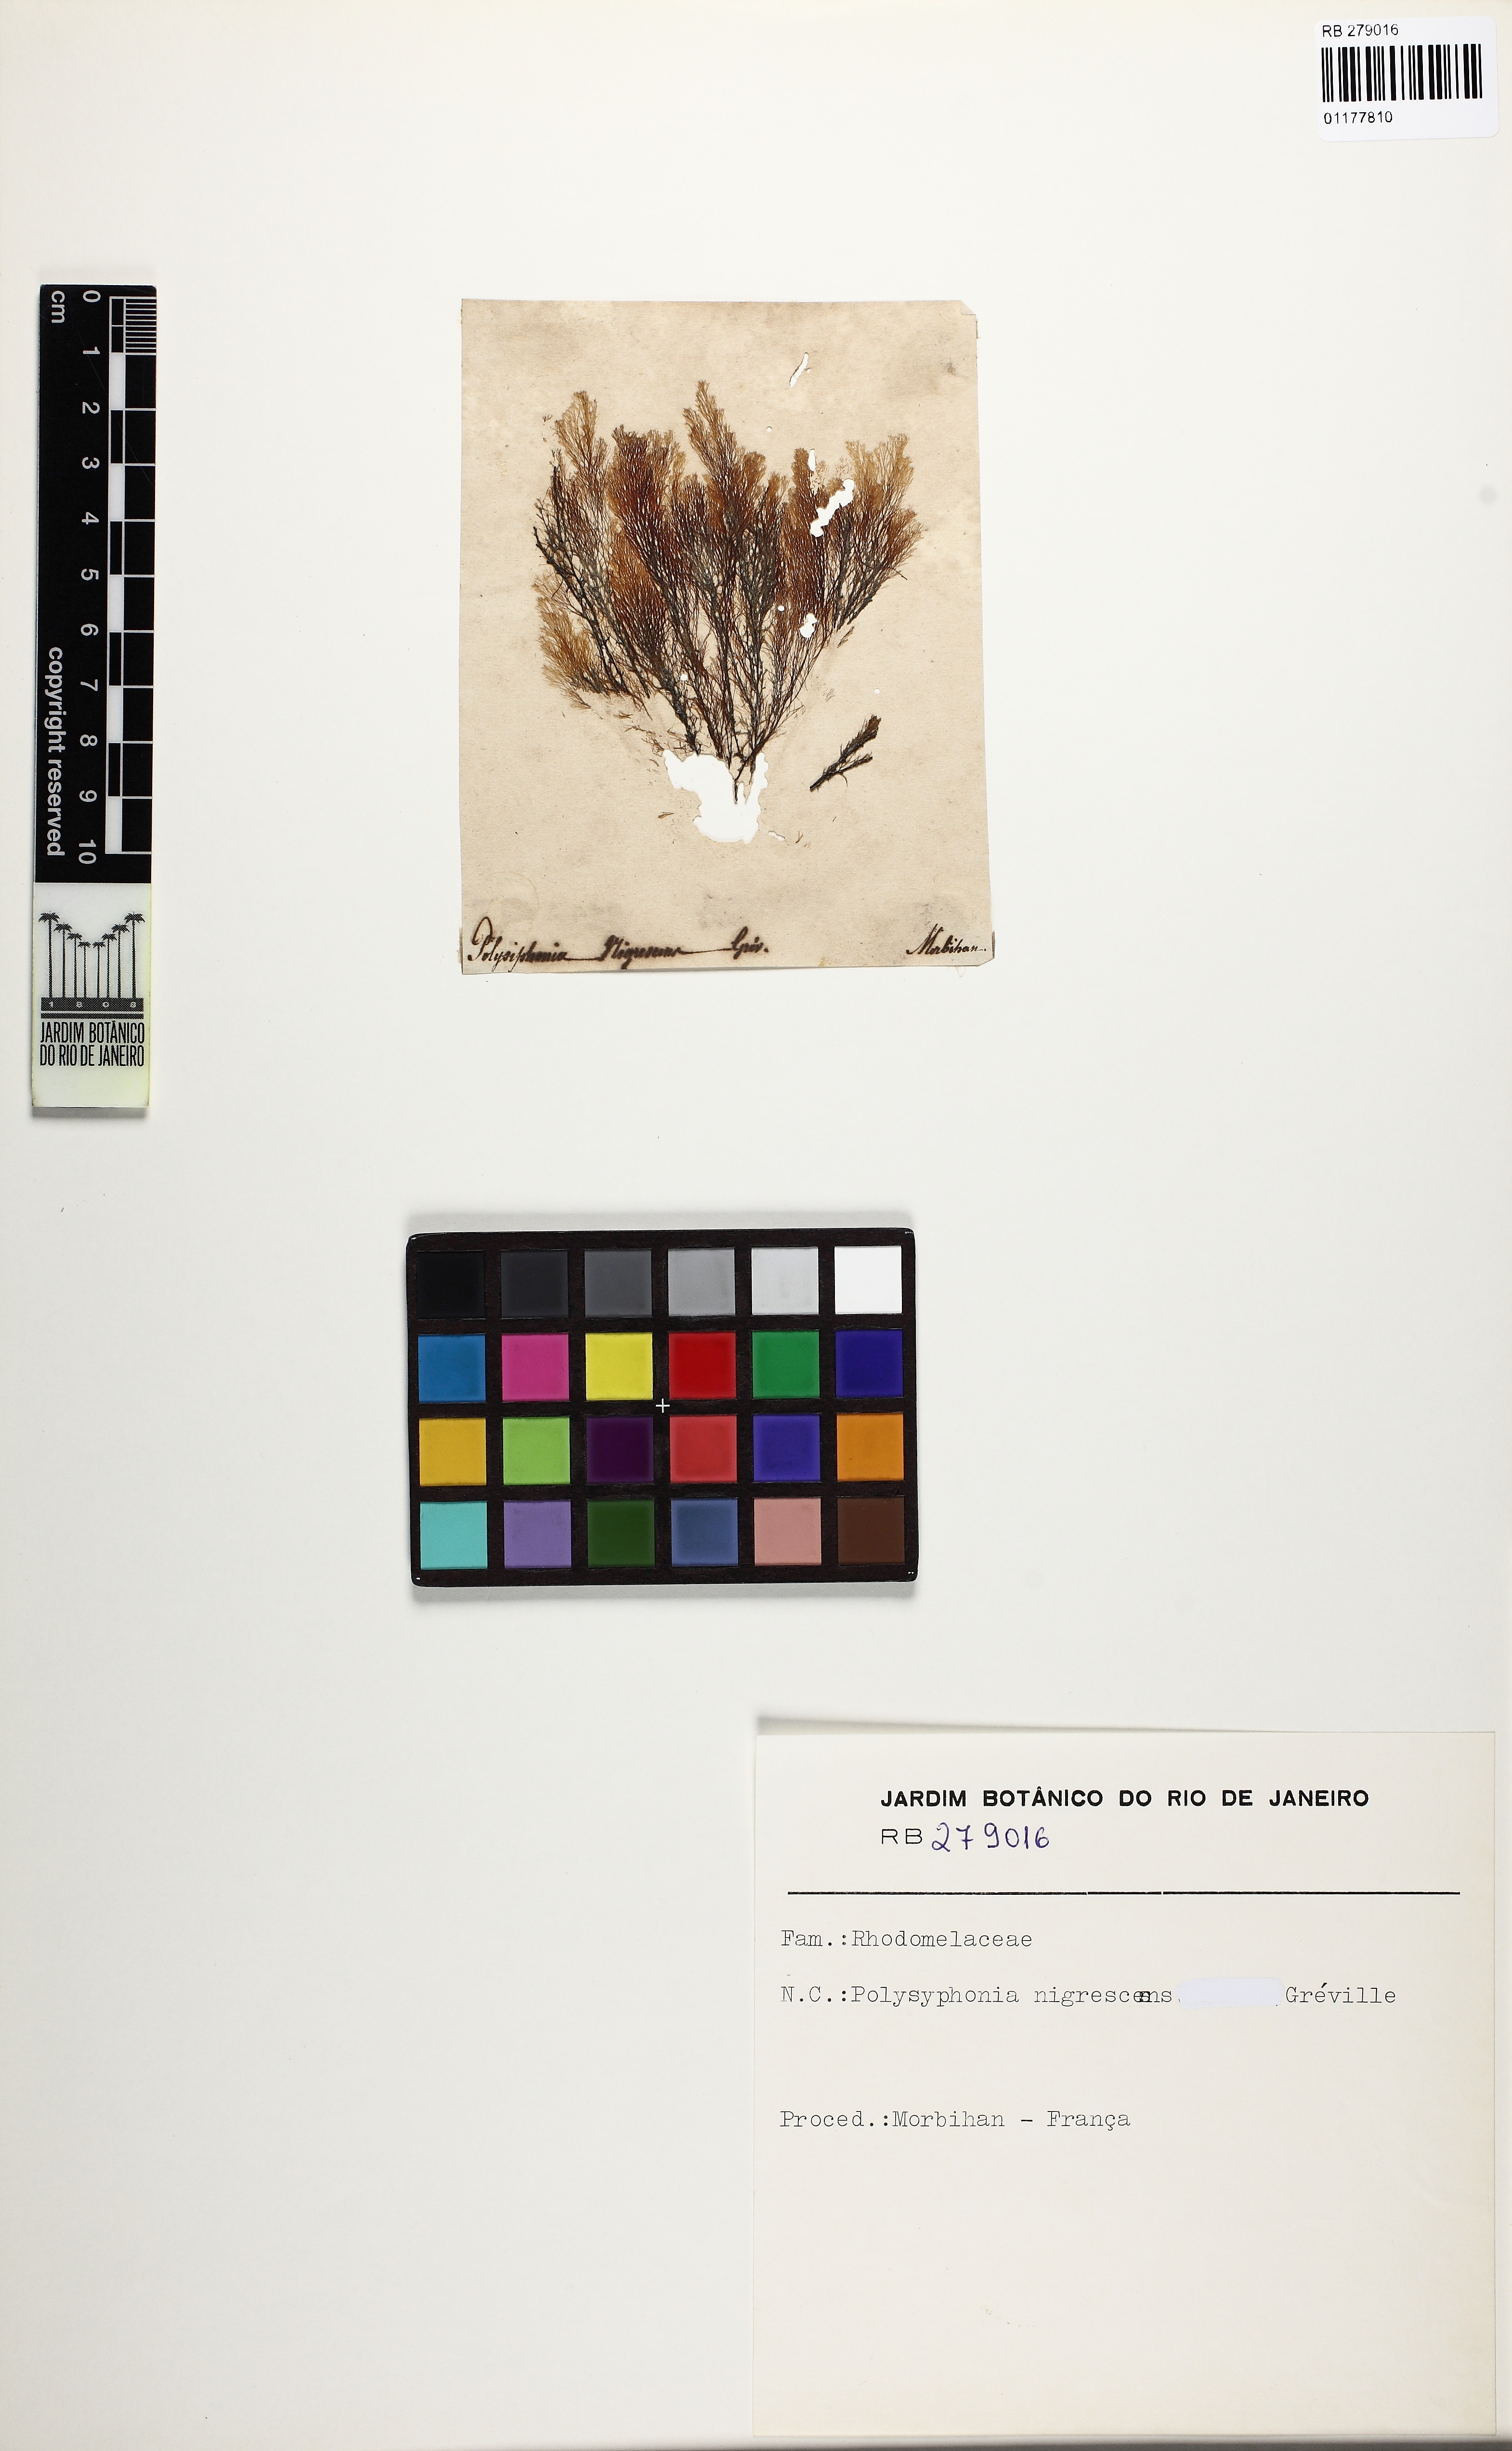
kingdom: Plantae
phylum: Rhodophyta
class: Florideophyceae
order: Ceramiales
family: Rhodomelaceae
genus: Vertebrata
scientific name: Vertebrata spec
